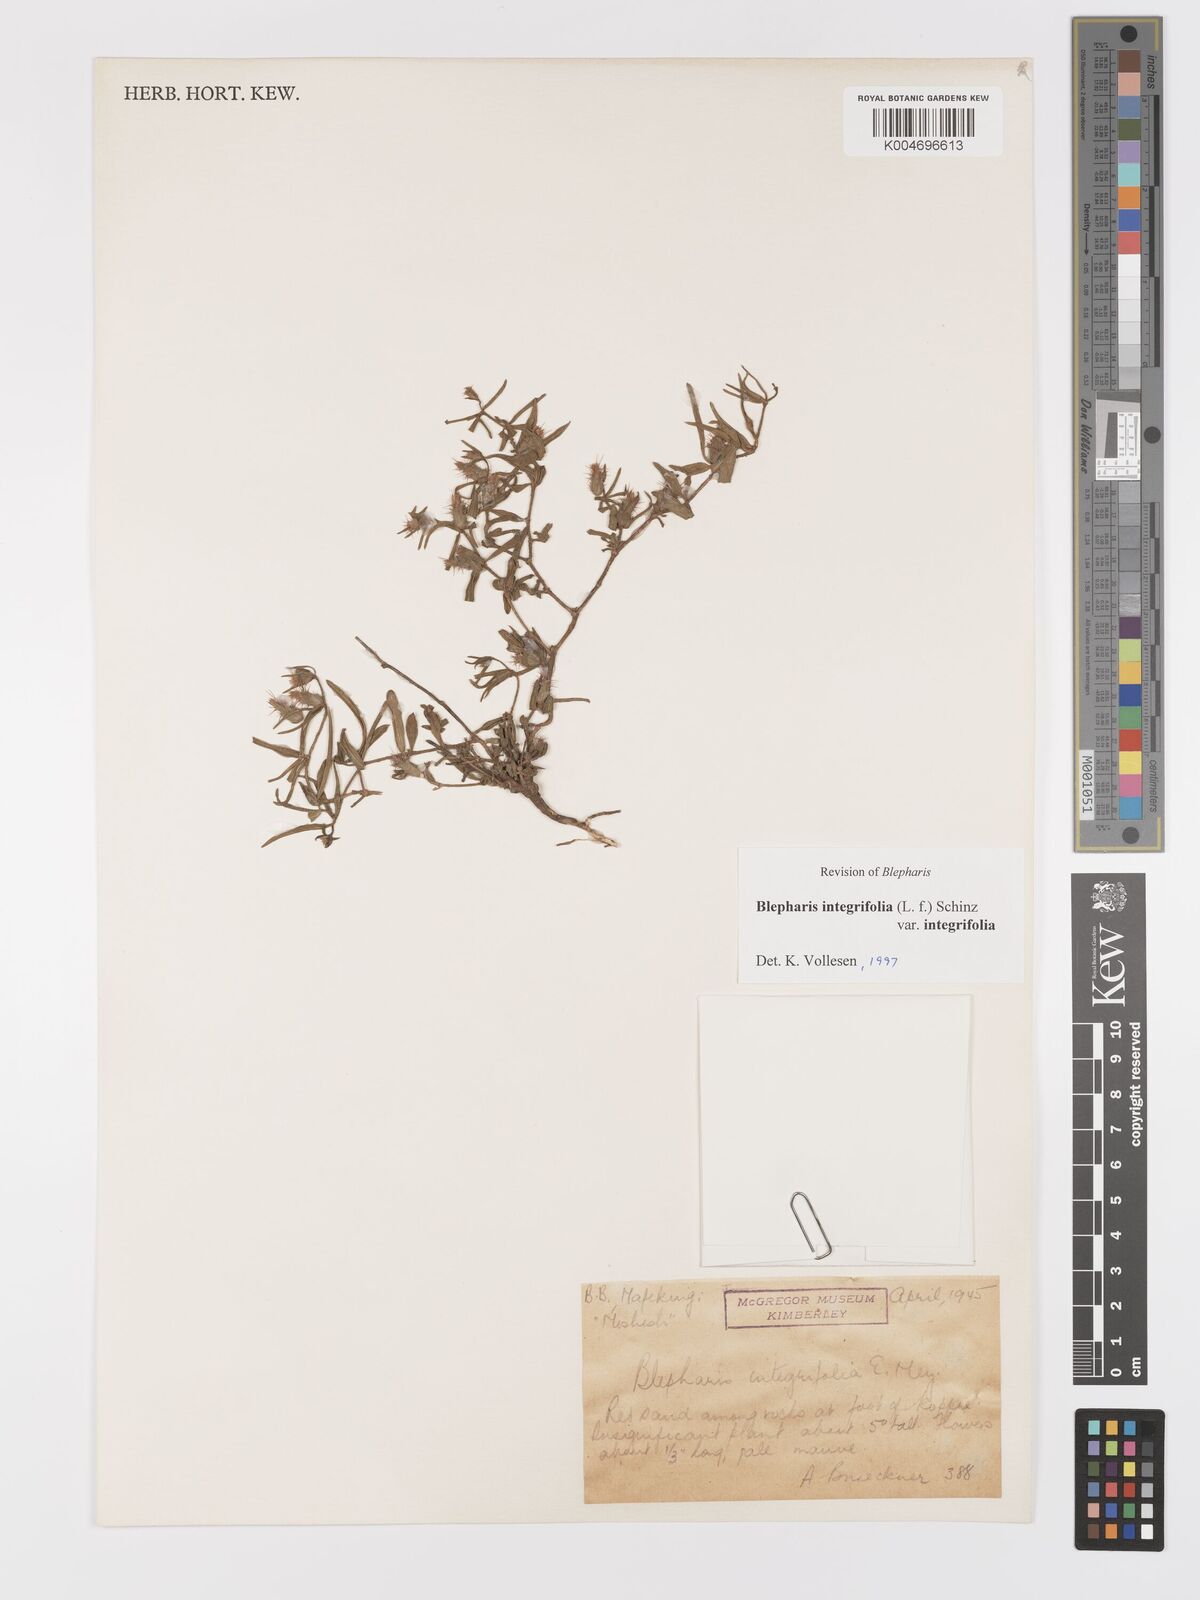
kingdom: Plantae
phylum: Tracheophyta
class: Magnoliopsida
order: Lamiales
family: Acanthaceae
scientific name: Acanthaceae
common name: Acanthaceae
